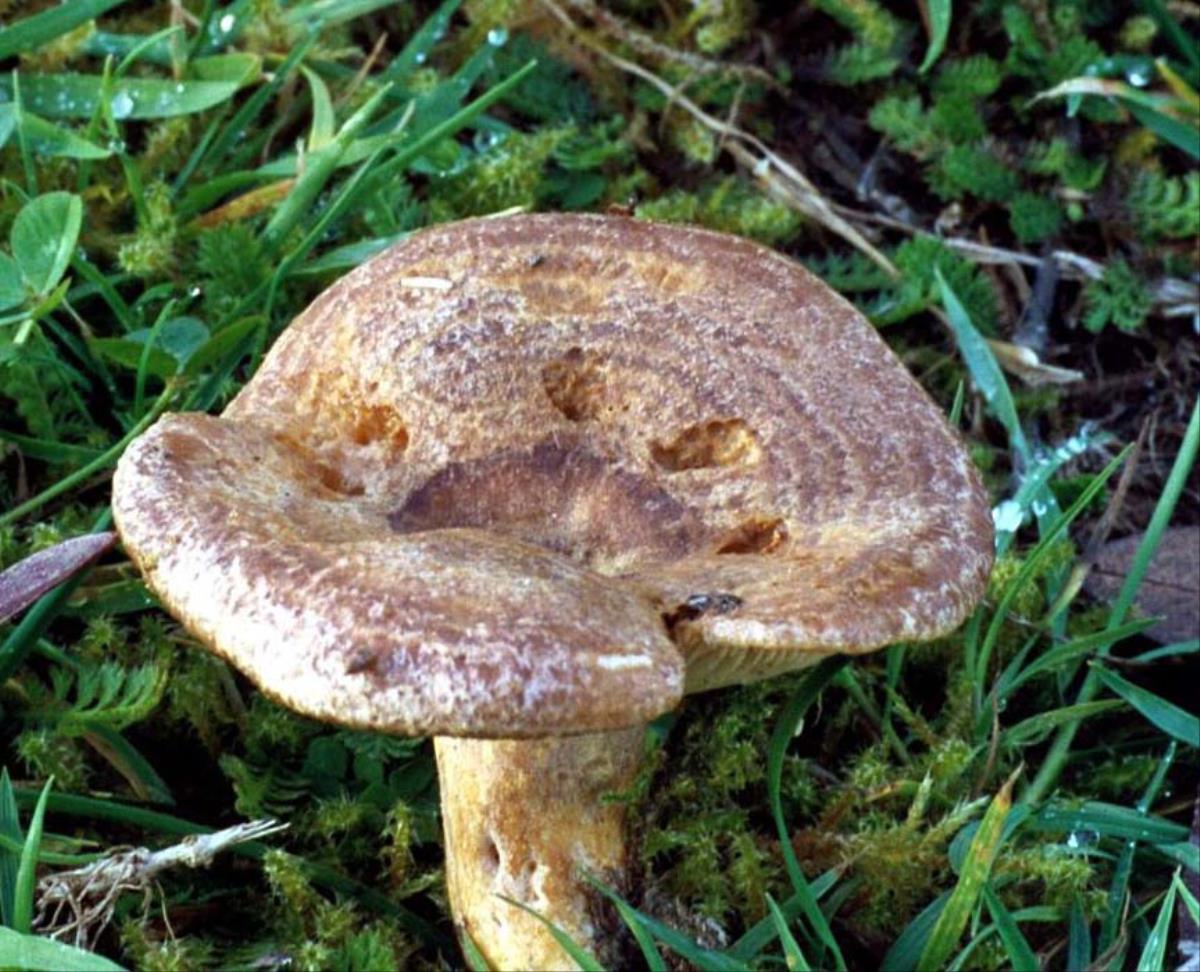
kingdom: Fungi
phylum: Basidiomycota
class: Agaricomycetes
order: Russulales
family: Russulaceae
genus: Lactarius
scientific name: Lactarius tawai
